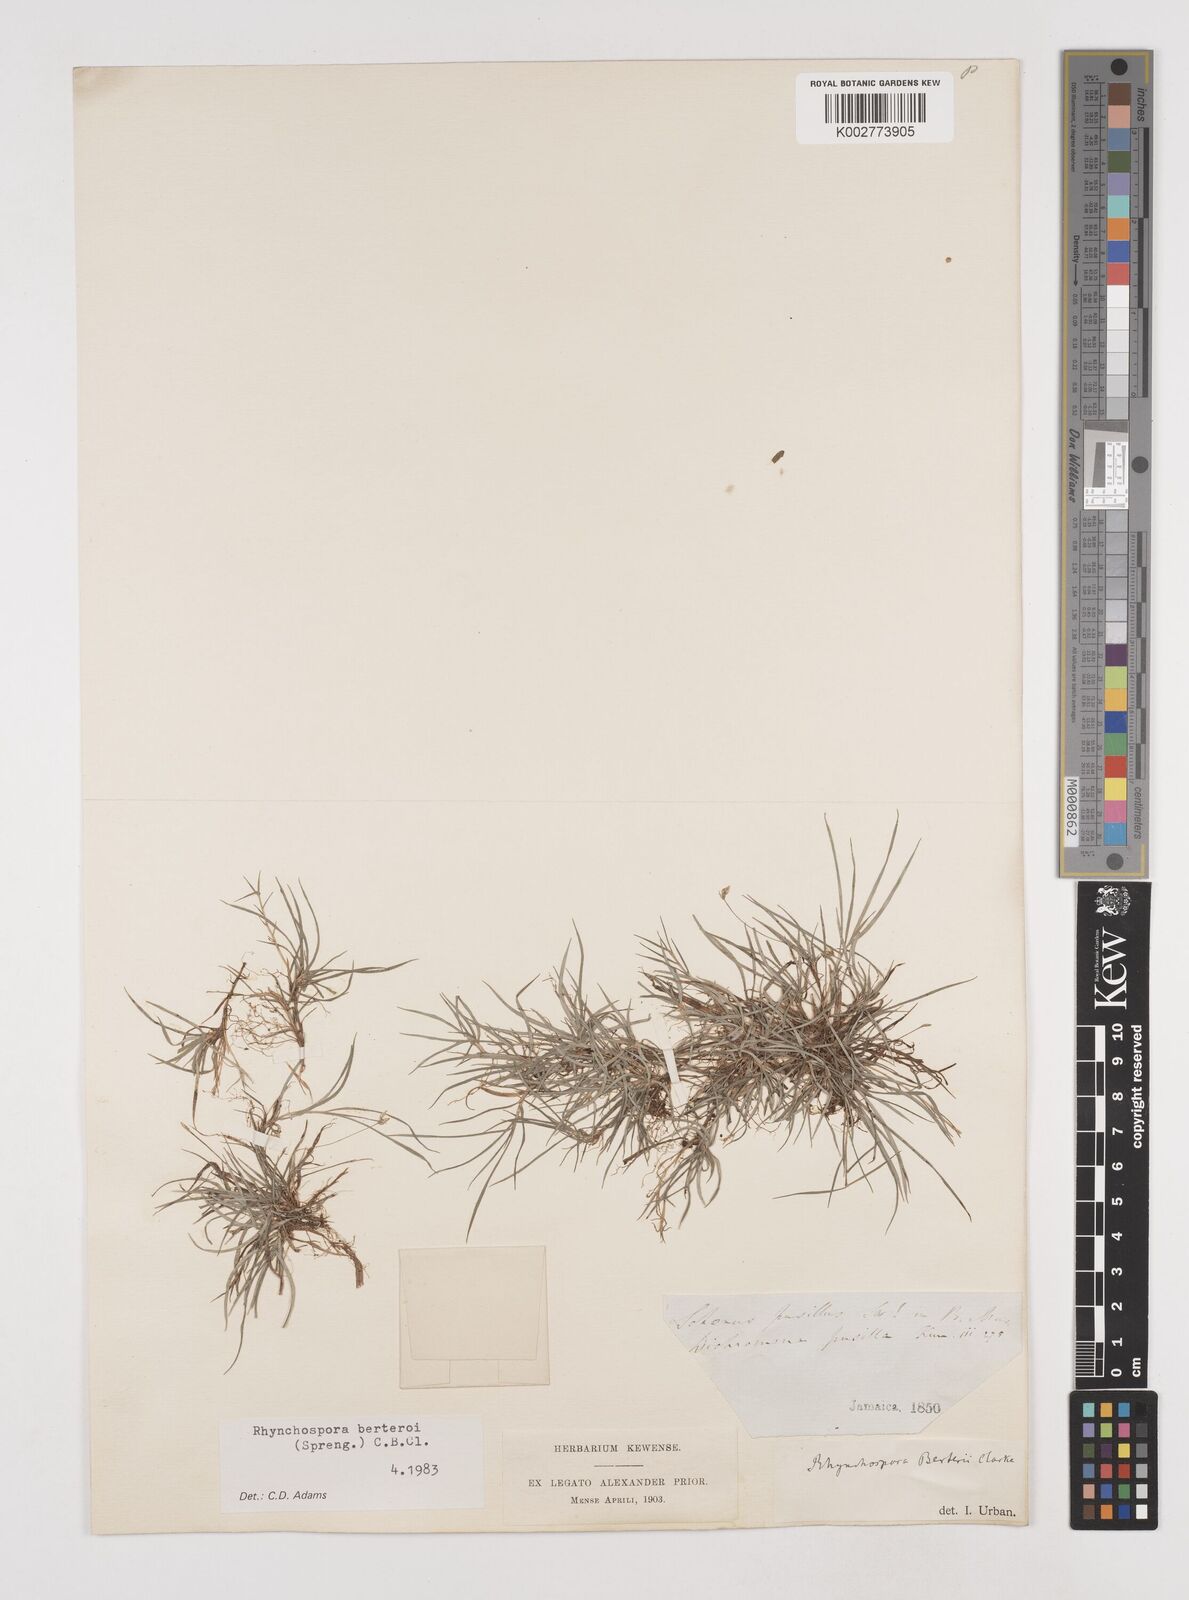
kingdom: Plantae
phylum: Tracheophyta
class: Liliopsida
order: Poales
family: Cyperaceae
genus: Rhynchospora
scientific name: Rhynchospora berteroi
